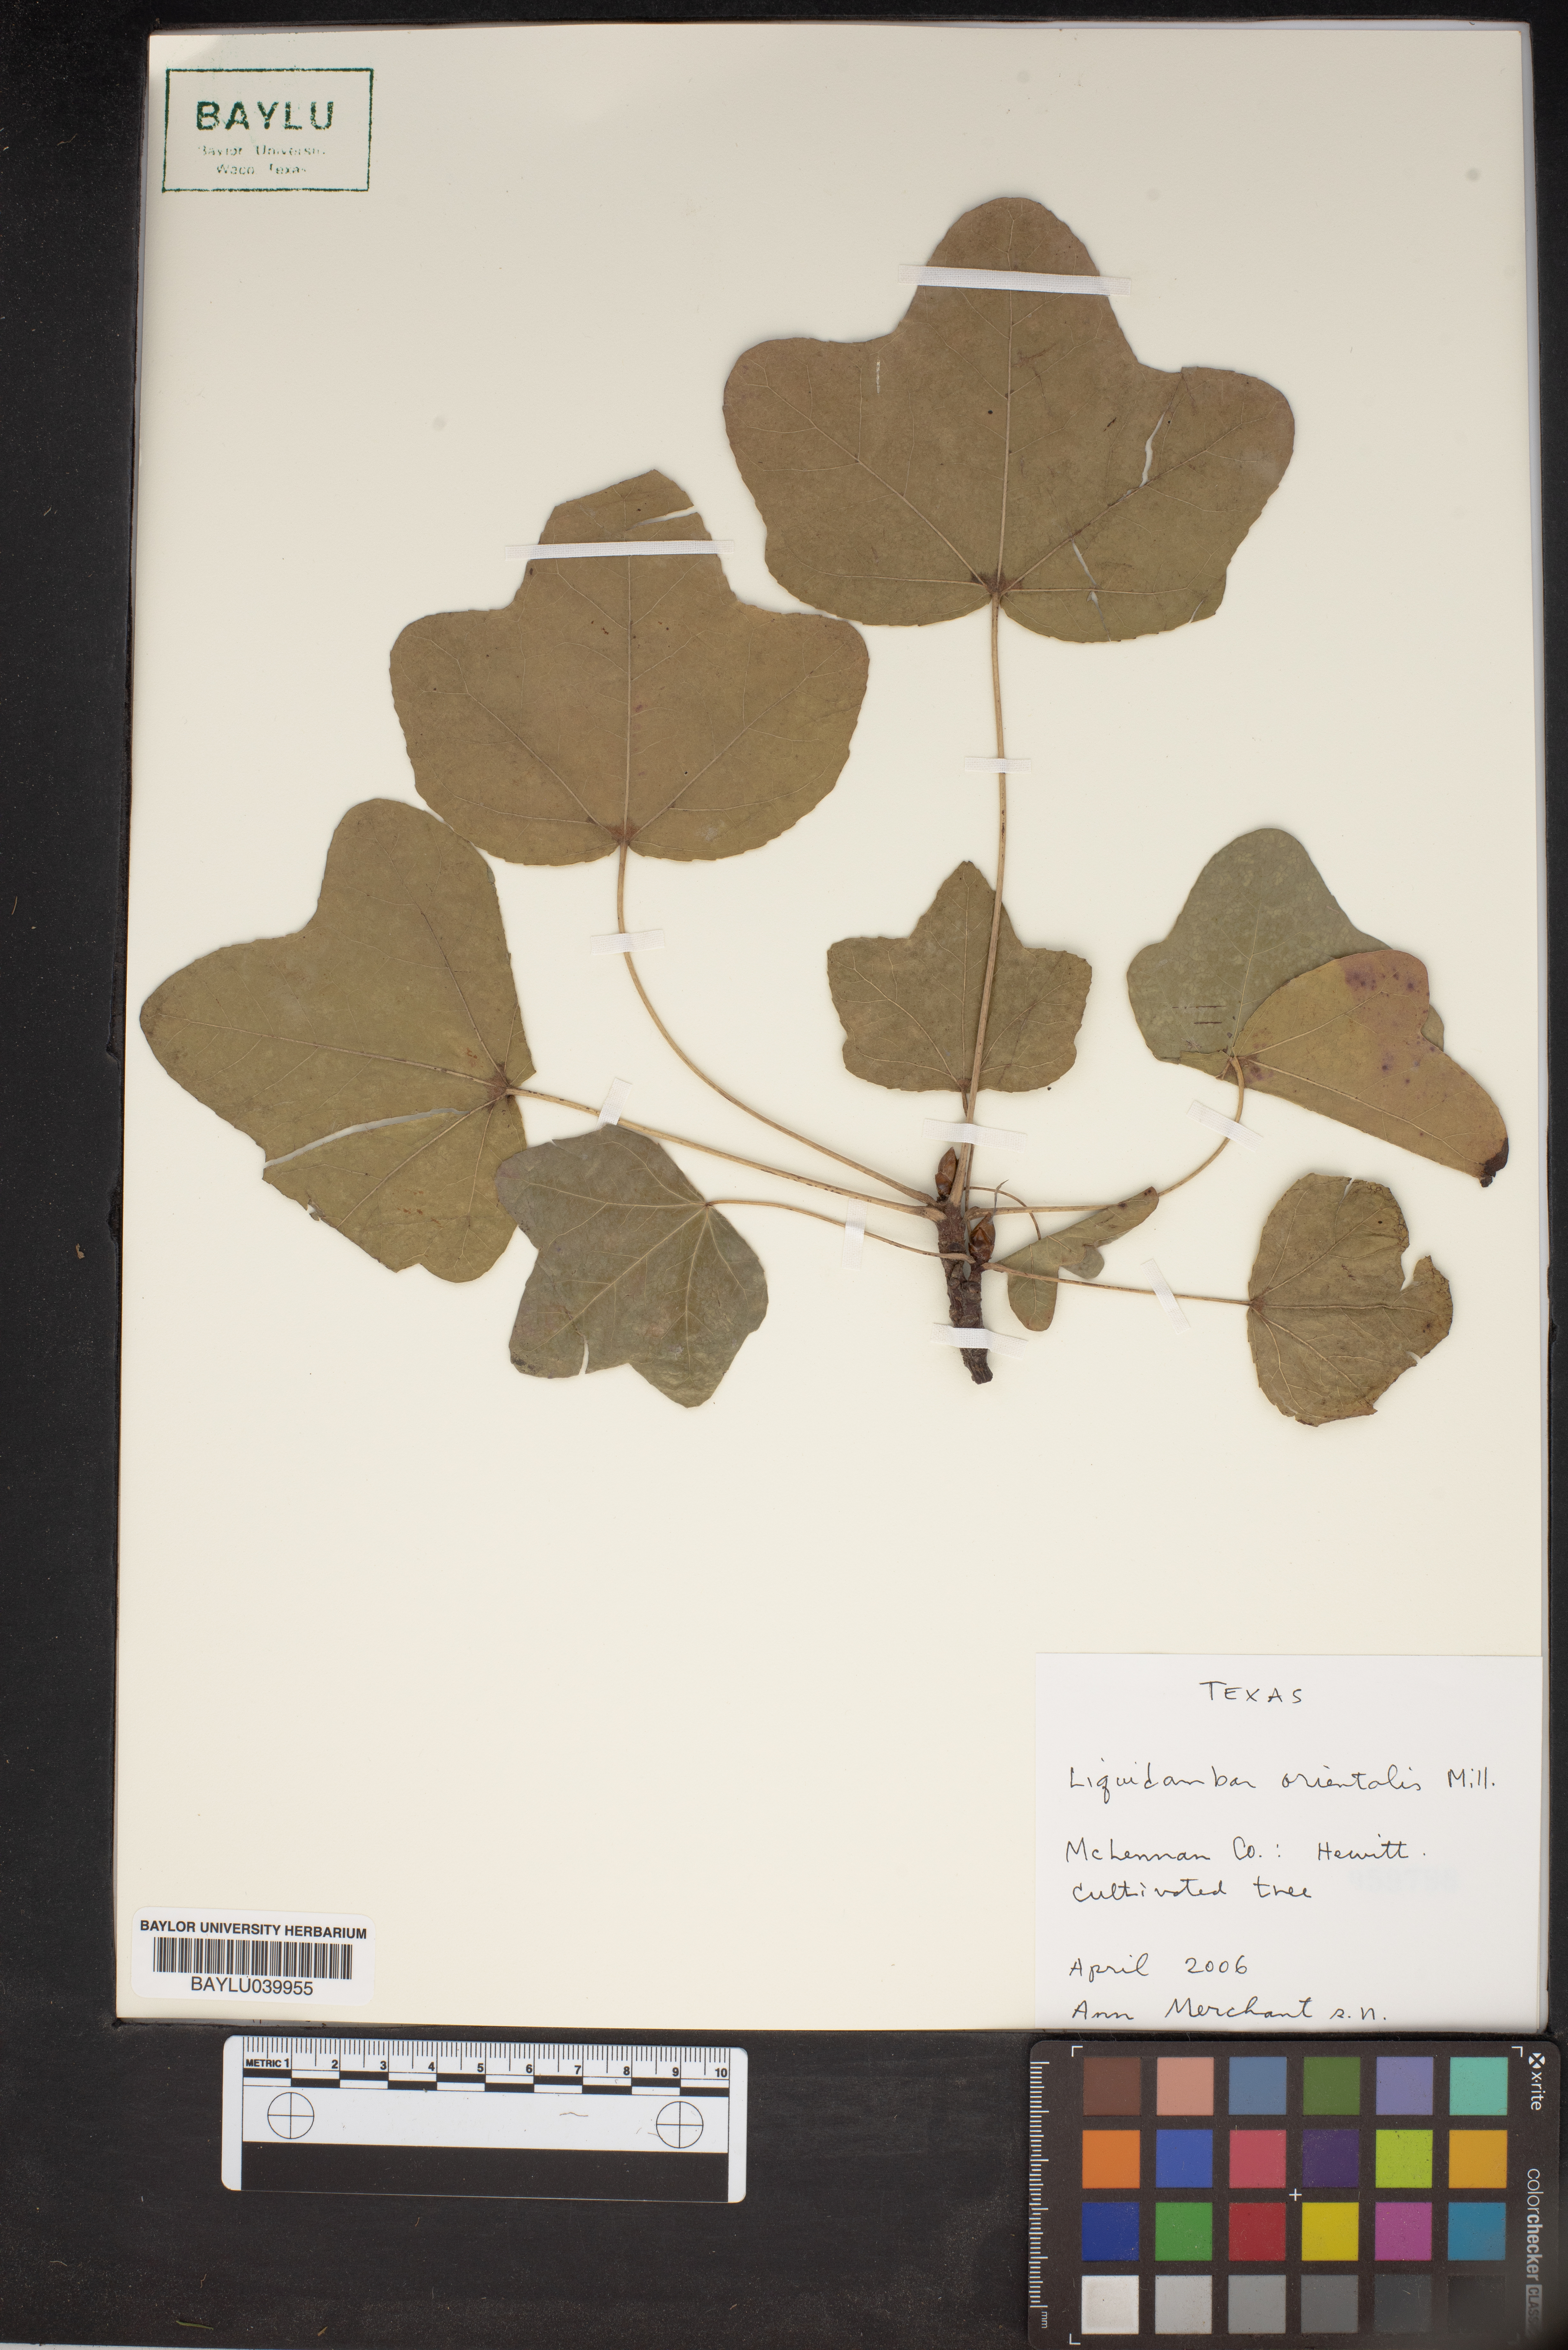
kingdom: Plantae
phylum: Tracheophyta
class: Magnoliopsida
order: Saxifragales
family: Altingiaceae
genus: Liquidambar
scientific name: Liquidambar orientalis
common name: Oriental sweetgum
